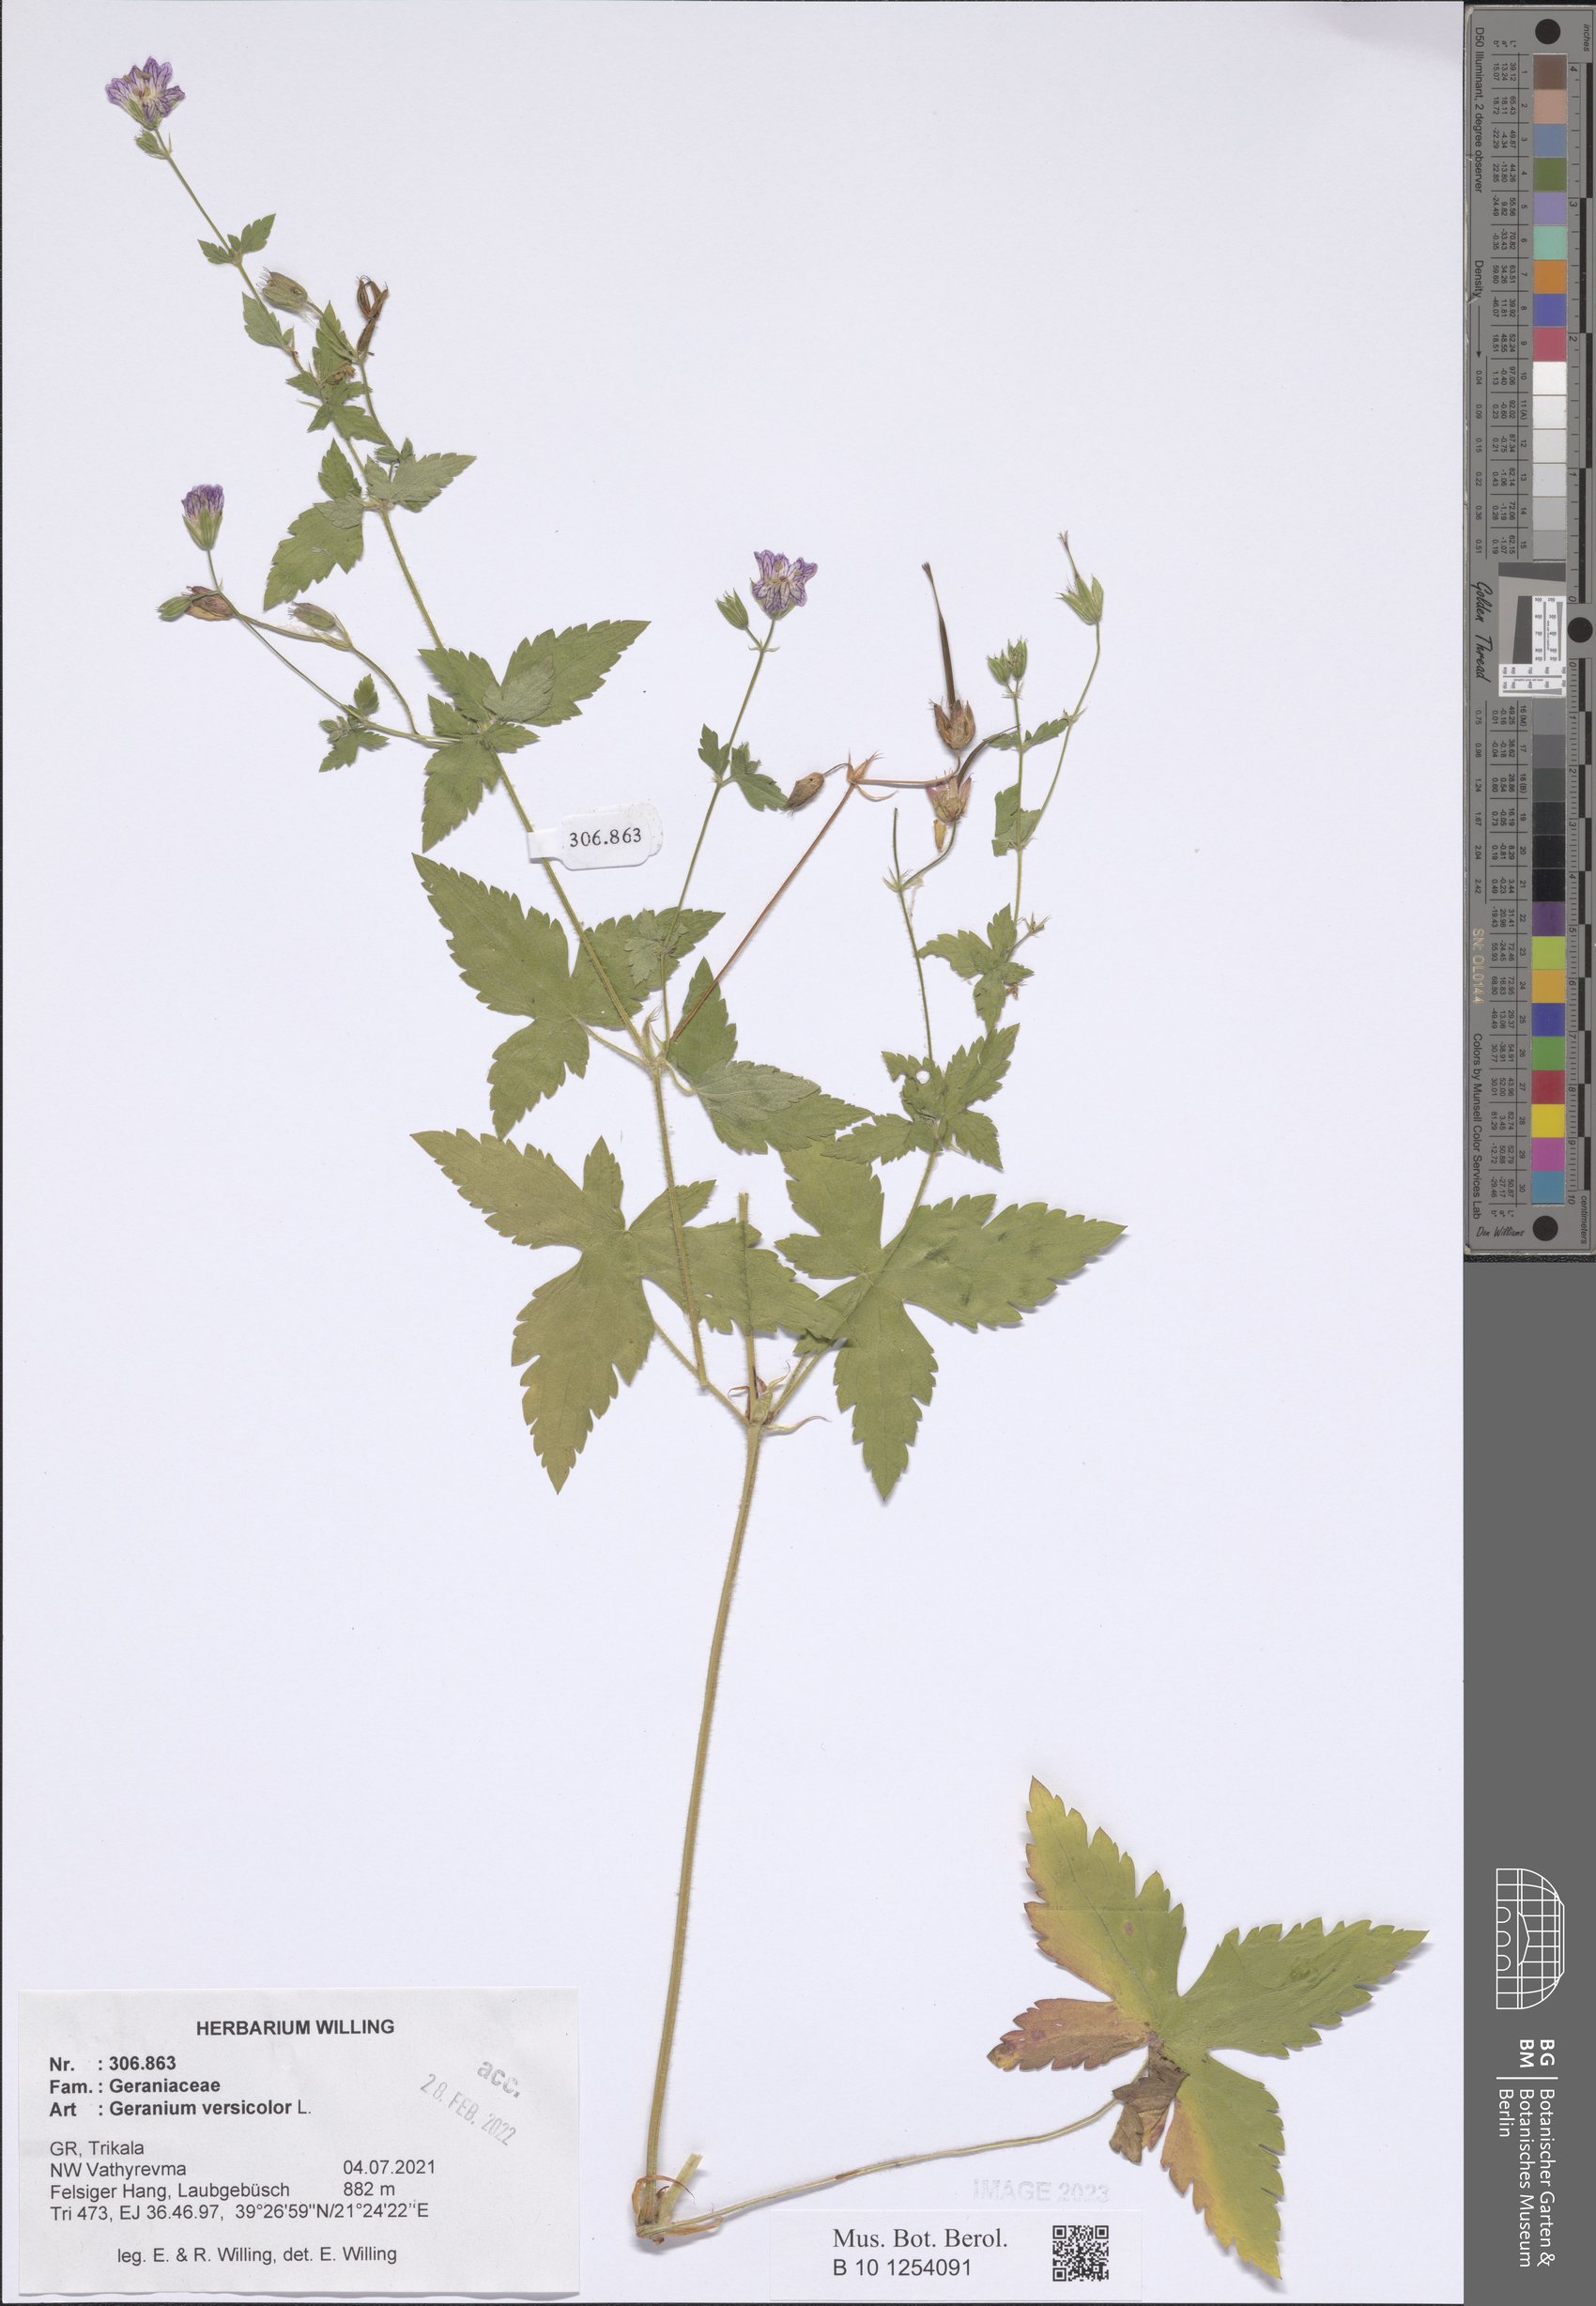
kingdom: Plantae
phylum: Tracheophyta
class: Magnoliopsida
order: Geraniales
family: Geraniaceae
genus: Geranium
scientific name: Geranium versicolor
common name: Pencilled crane's-bill
